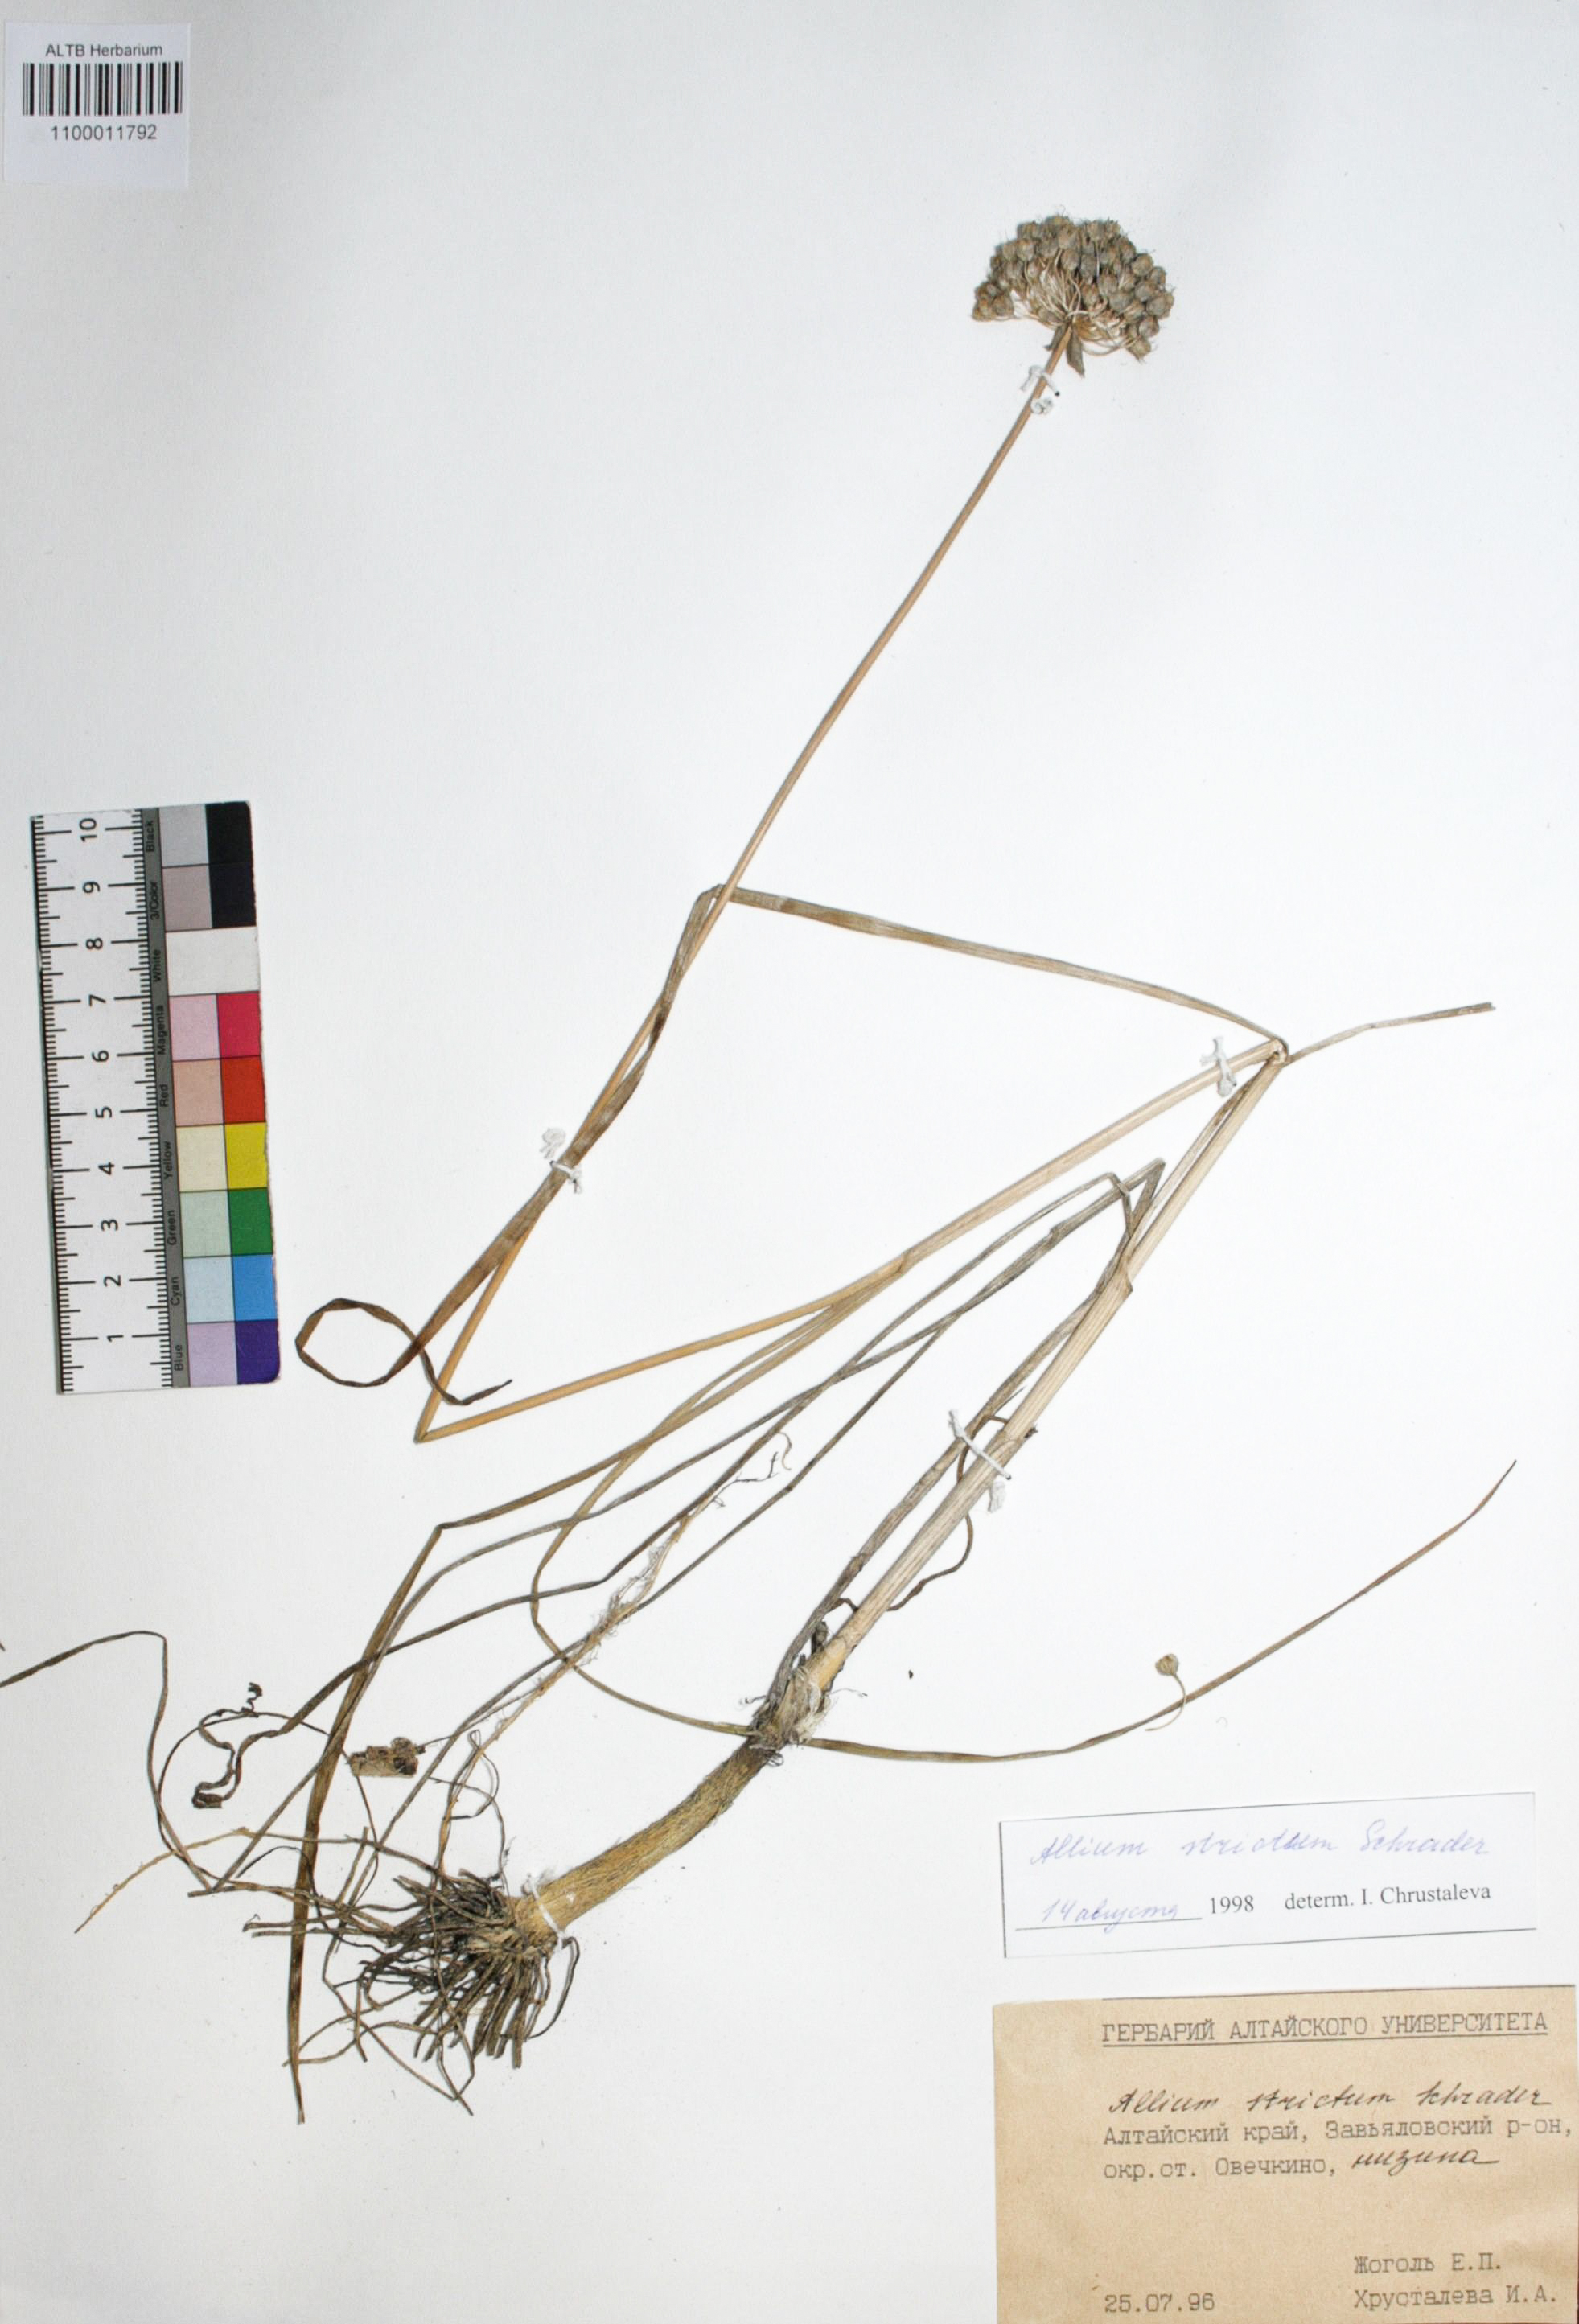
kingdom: Plantae
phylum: Tracheophyta
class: Liliopsida
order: Asparagales
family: Amaryllidaceae
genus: Allium
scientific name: Allium strictum
